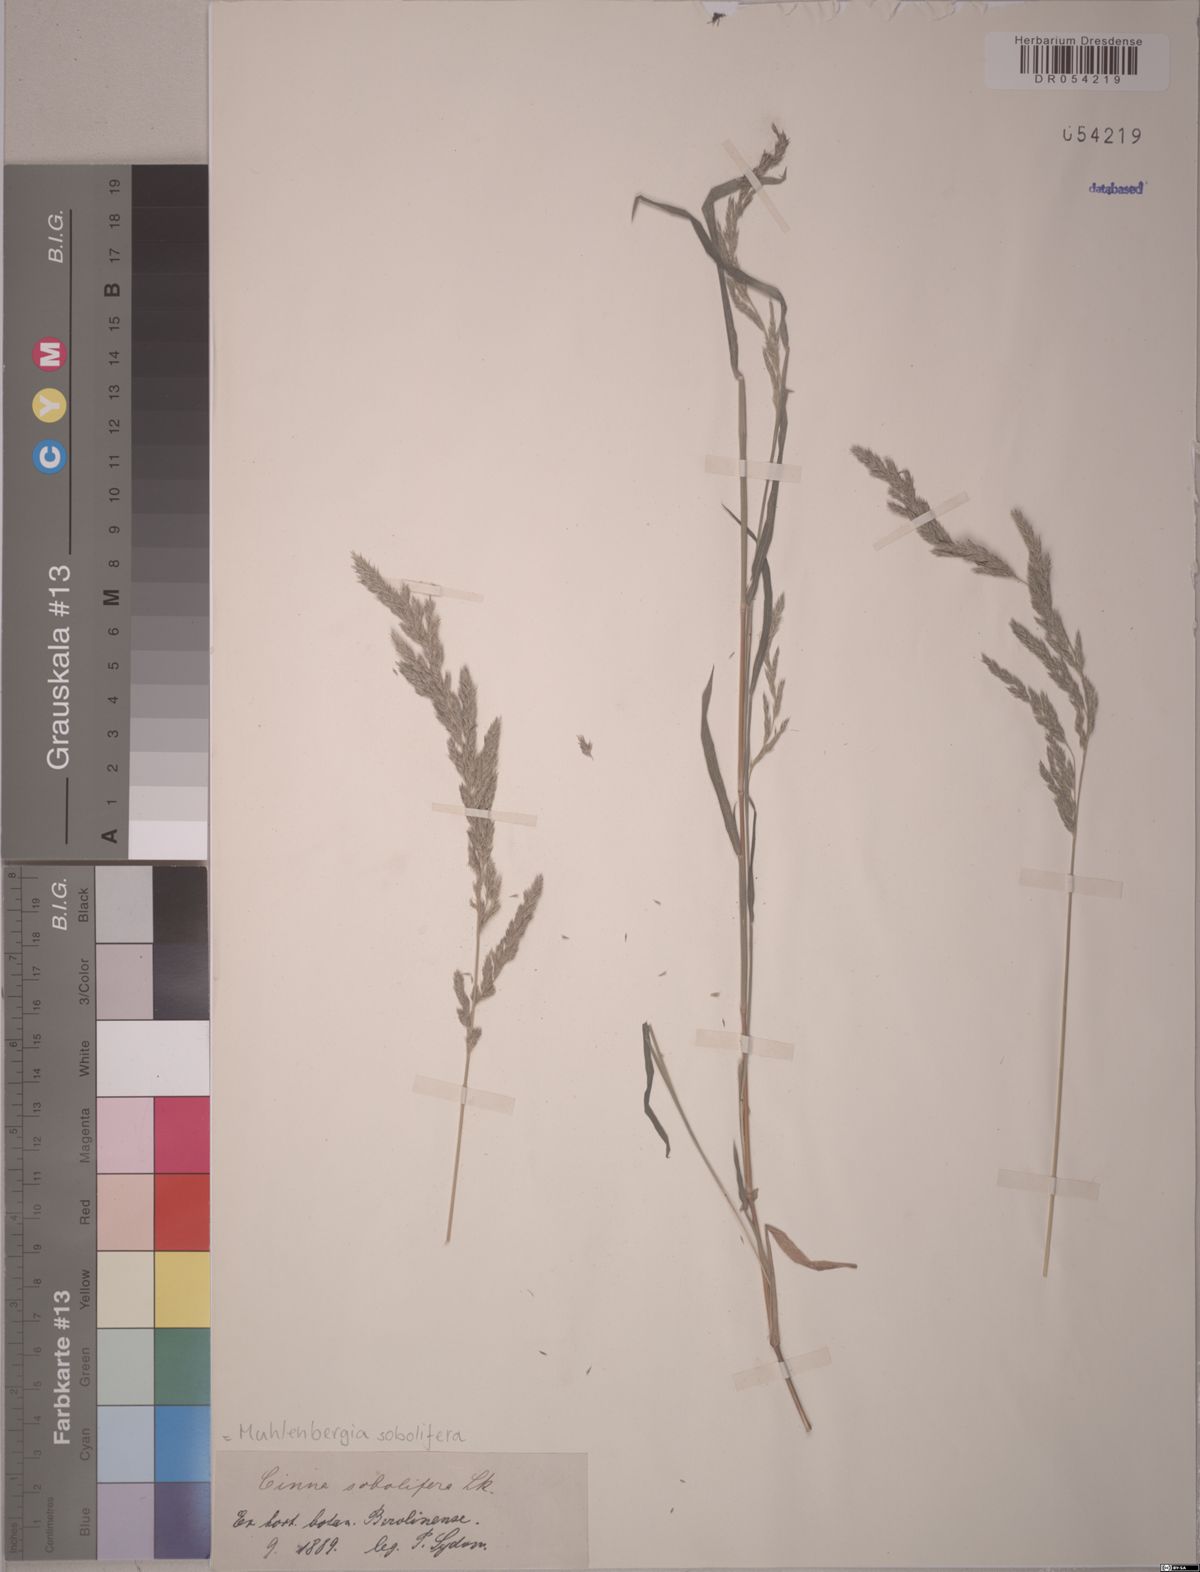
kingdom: Plantae
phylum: Tracheophyta
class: Liliopsida
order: Poales
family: Poaceae
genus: Muhlenbergia
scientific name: Muhlenbergia sobolifera
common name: Creeping muhly
